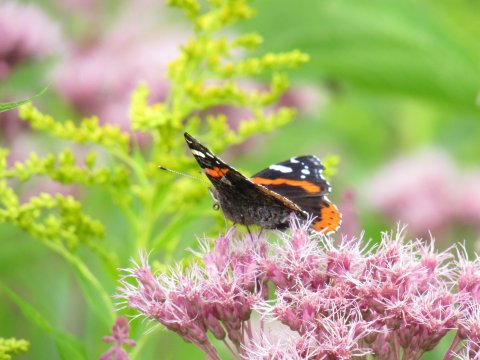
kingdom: Animalia
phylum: Arthropoda
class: Insecta
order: Lepidoptera
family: Nymphalidae
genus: Vanessa
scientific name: Vanessa atalanta
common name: Red Admiral
